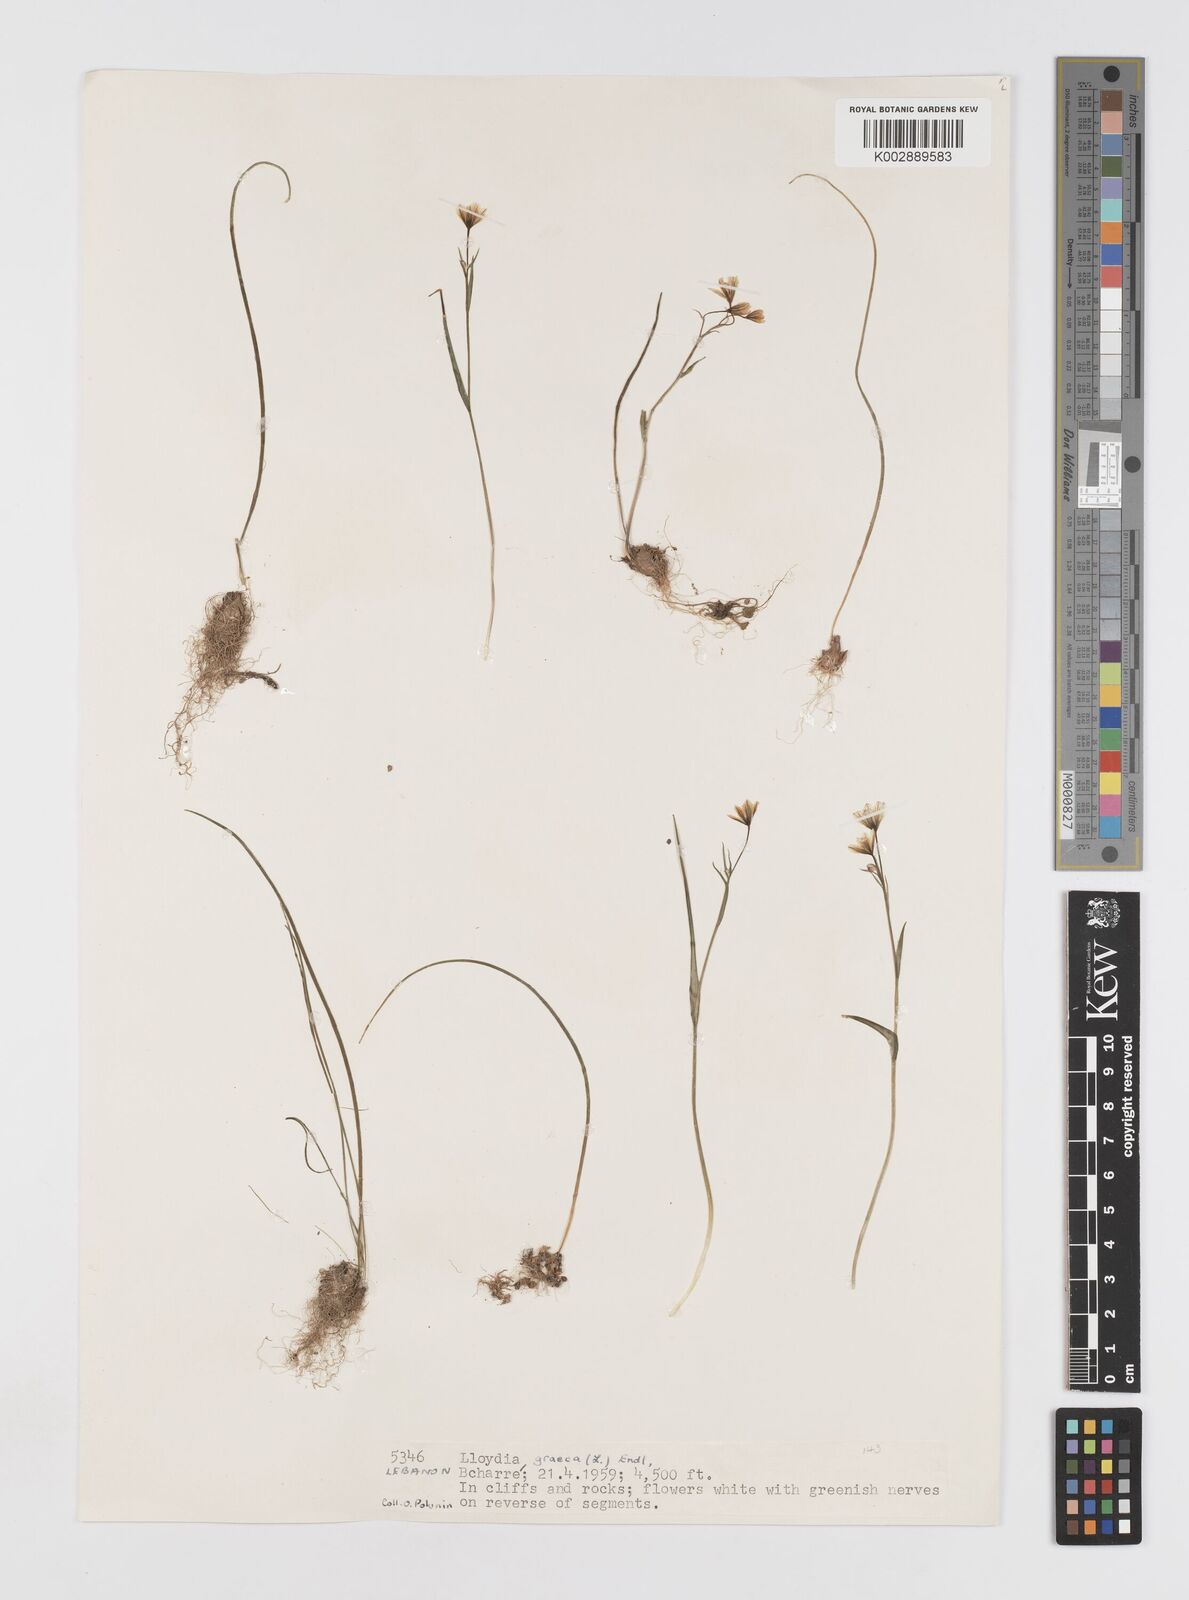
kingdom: Plantae
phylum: Tracheophyta
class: Liliopsida
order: Liliales
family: Liliaceae
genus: Gagea
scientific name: Gagea graeca
